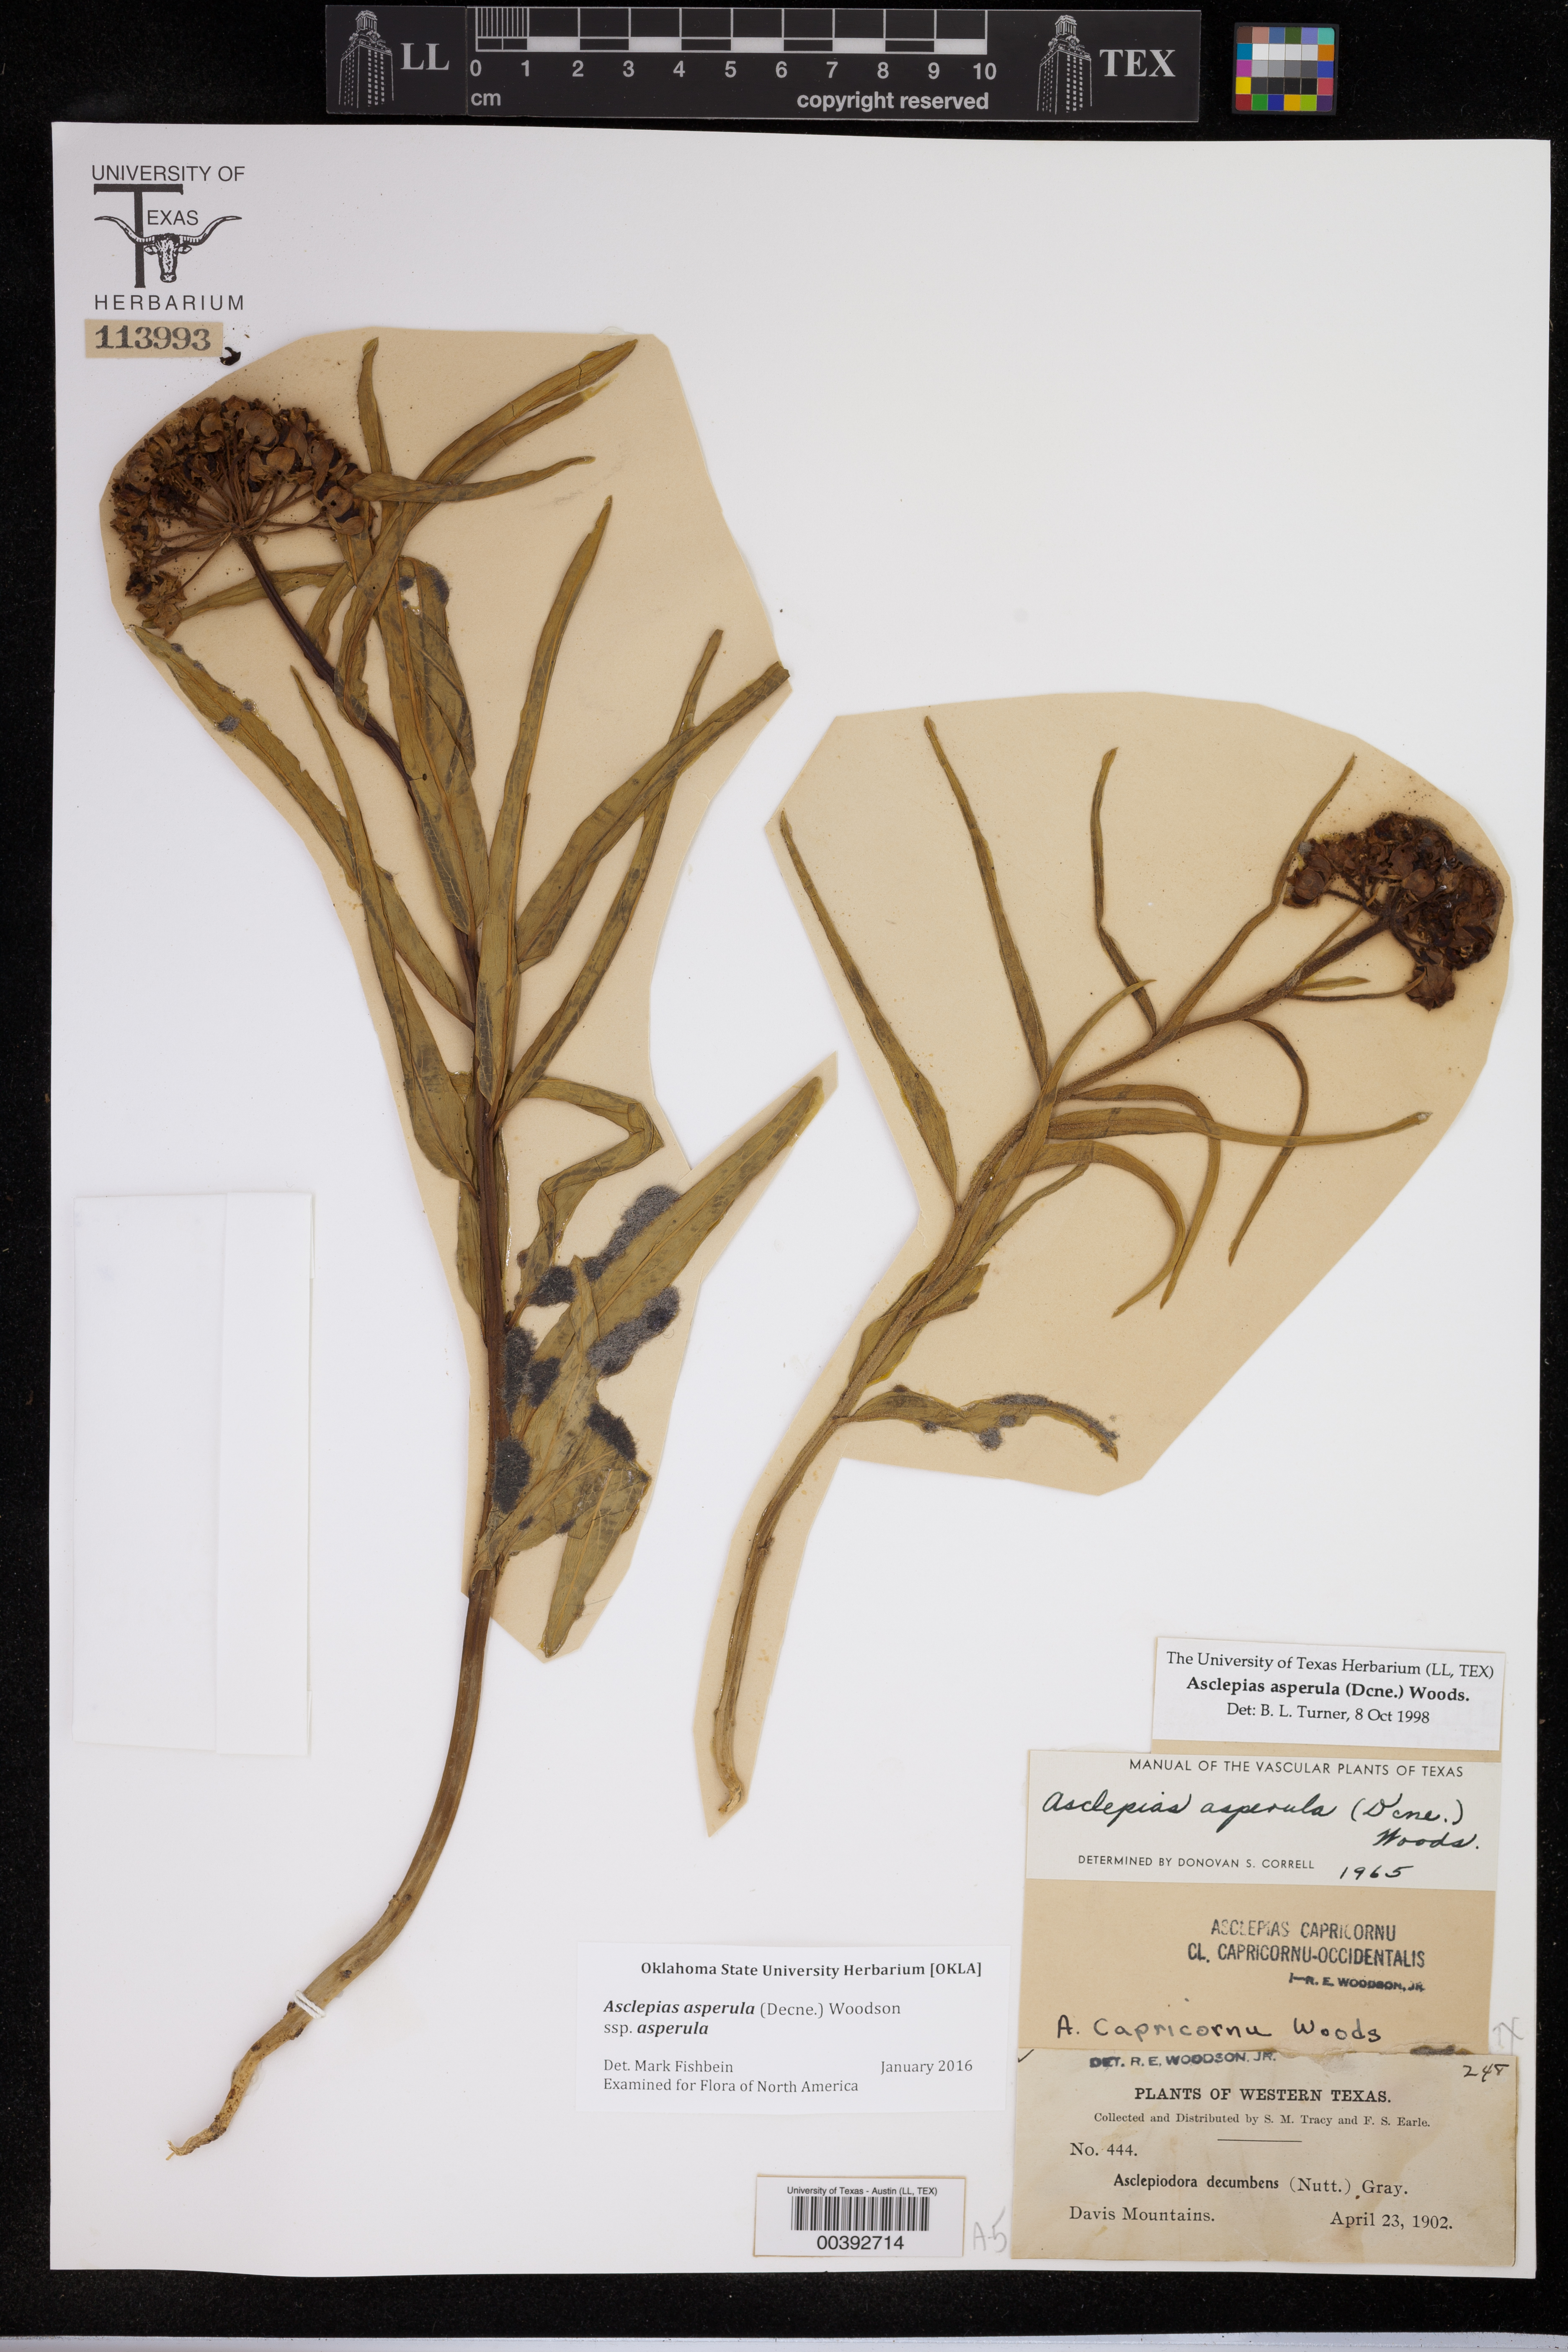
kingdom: Plantae
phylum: Tracheophyta
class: Magnoliopsida
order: Gentianales
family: Apocynaceae
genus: Asclepias
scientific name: Asclepias asperula
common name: Antelope horns
